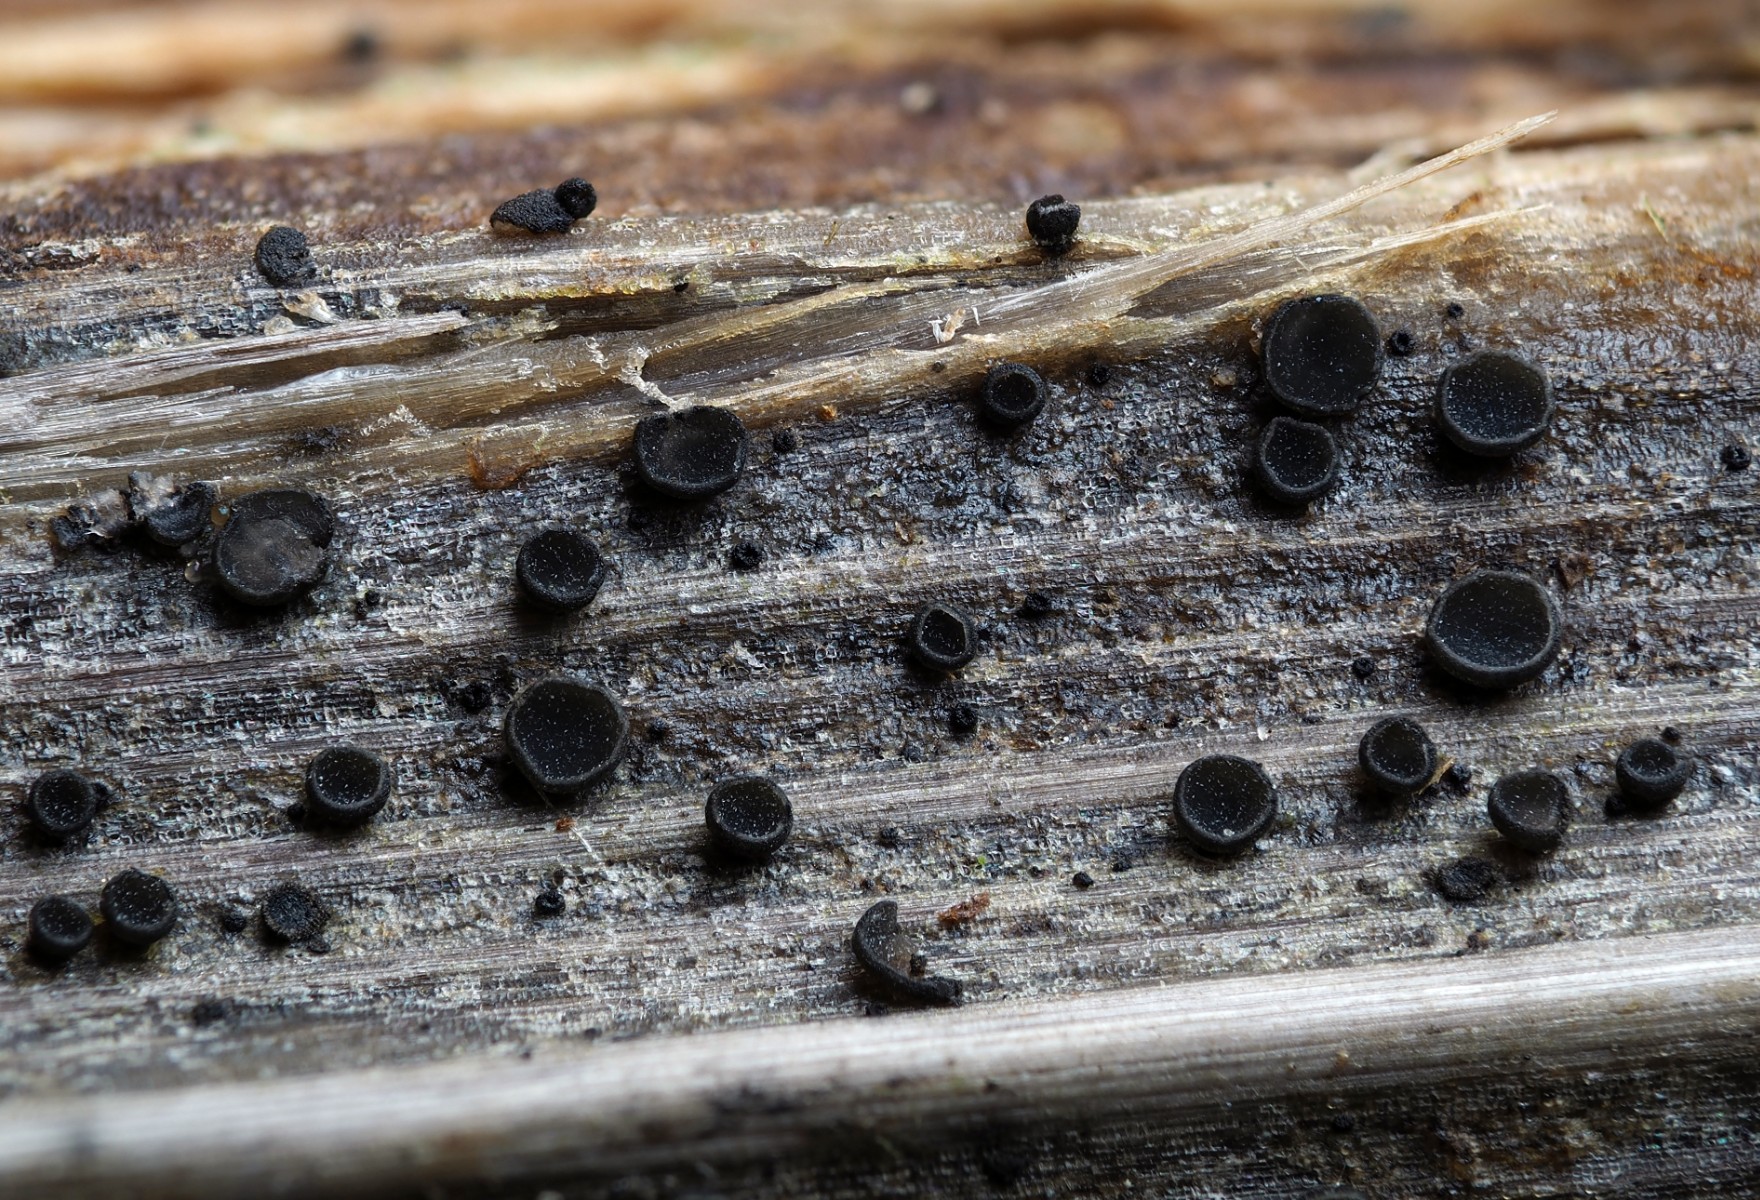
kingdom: Fungi
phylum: Ascomycota
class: Leotiomycetes
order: Helotiales
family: Ploettnerulaceae
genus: Pyrenopeziza
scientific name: Pyrenopeziza arctii
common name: burre-kerneskive
